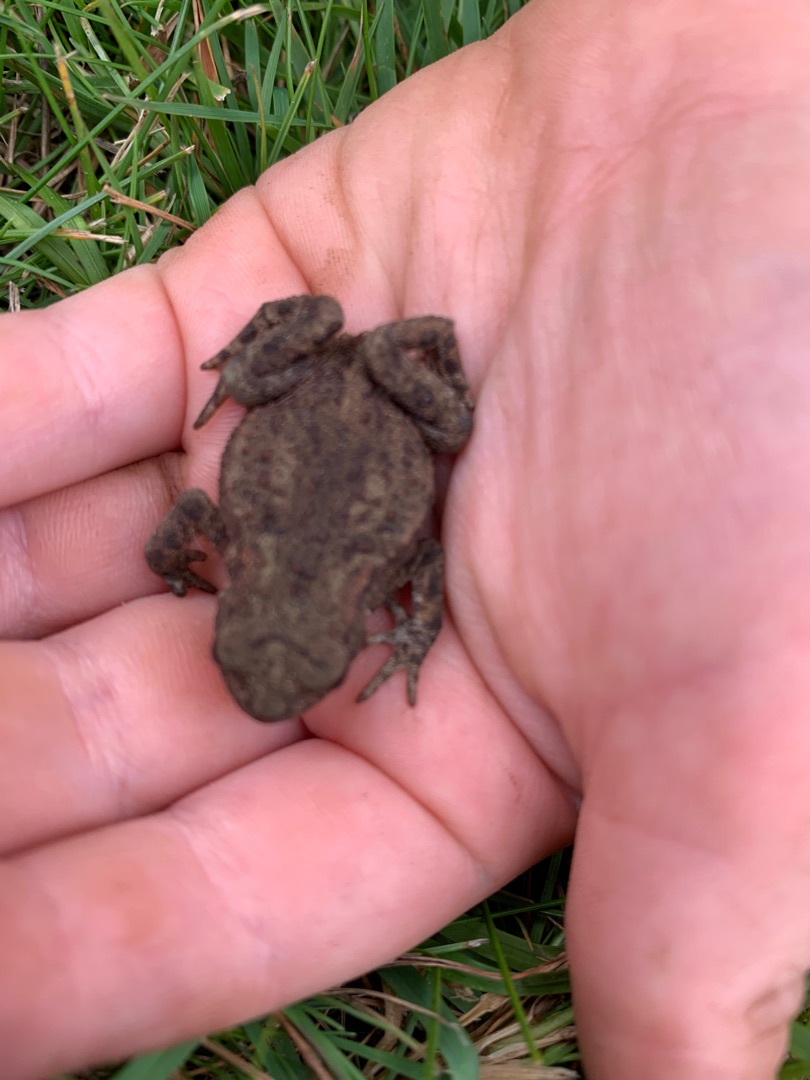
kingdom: Animalia
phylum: Chordata
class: Amphibia
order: Anura
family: Bufonidae
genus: Bufo
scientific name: Bufo bufo
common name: Skrubtudse
